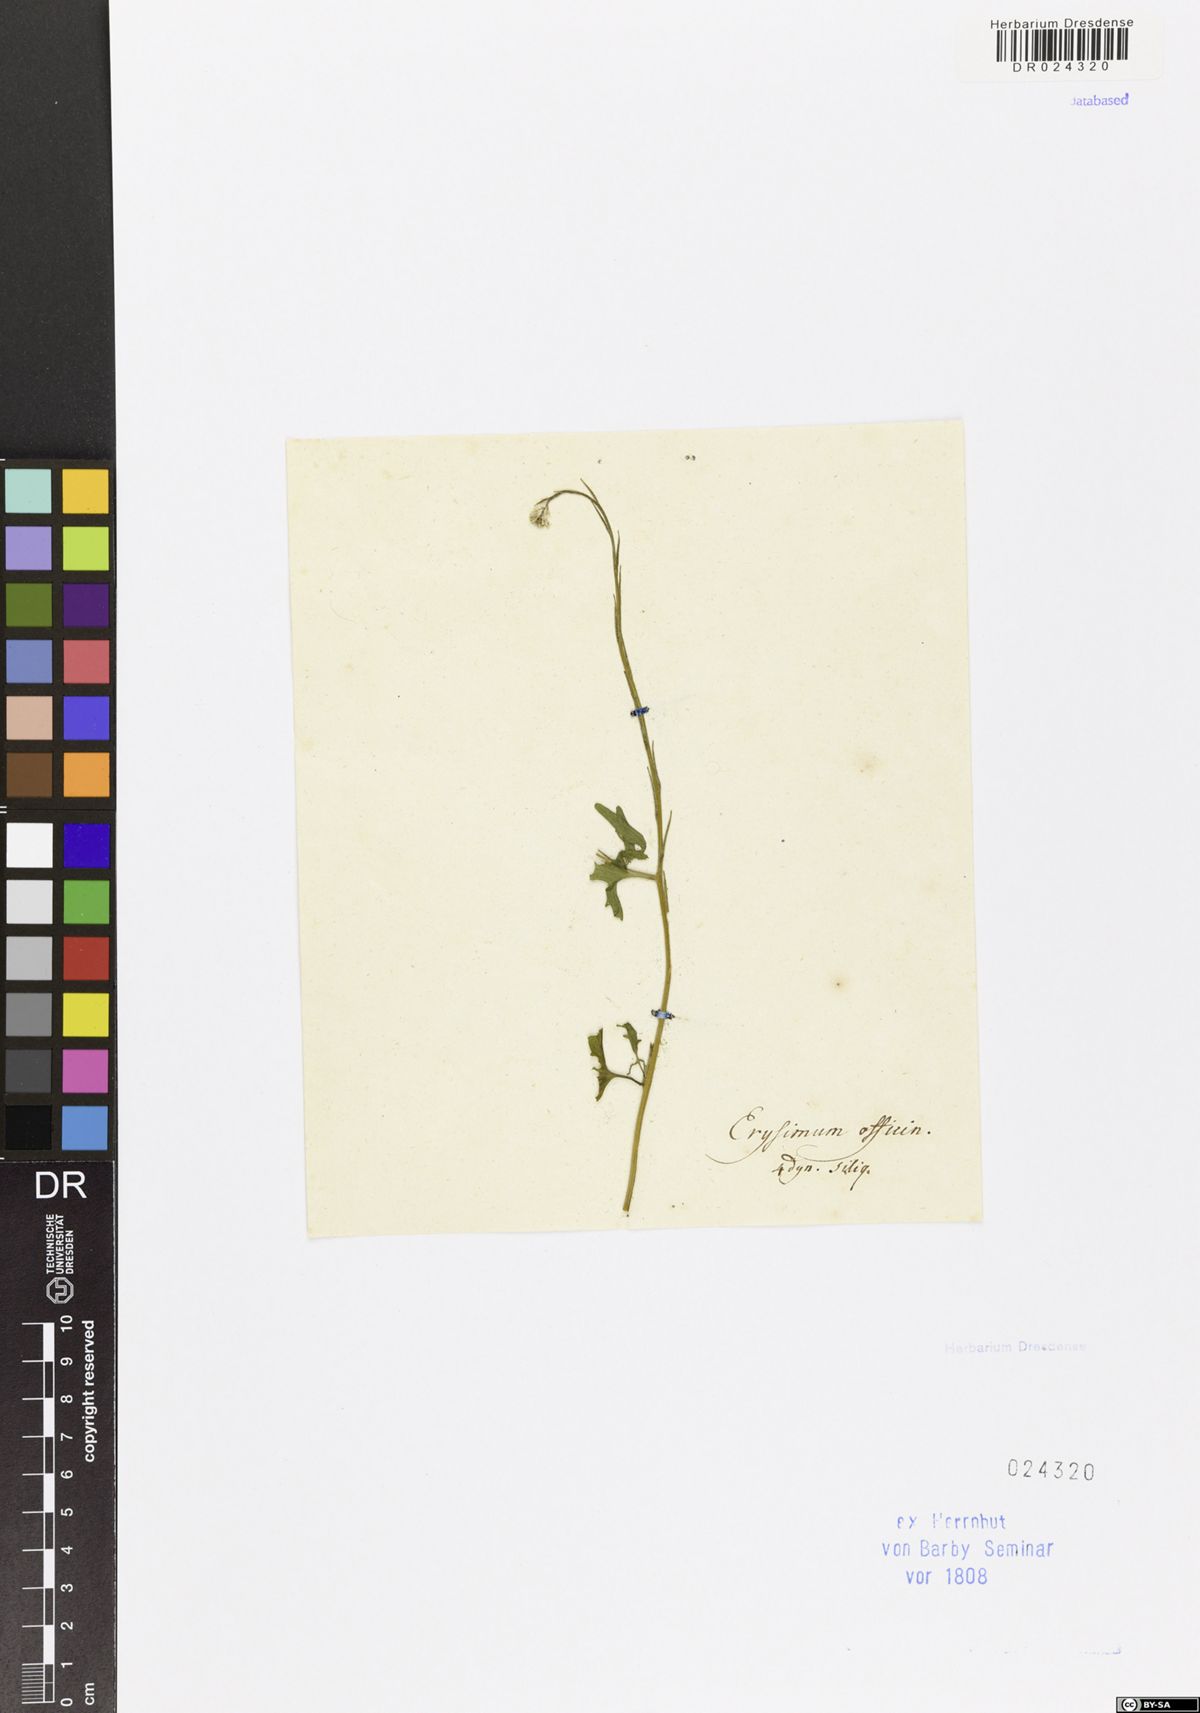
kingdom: Plantae
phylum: Tracheophyta
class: Magnoliopsida
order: Brassicales
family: Brassicaceae
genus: Sisymbrium
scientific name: Sisymbrium officinale
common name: Hedge mustard
